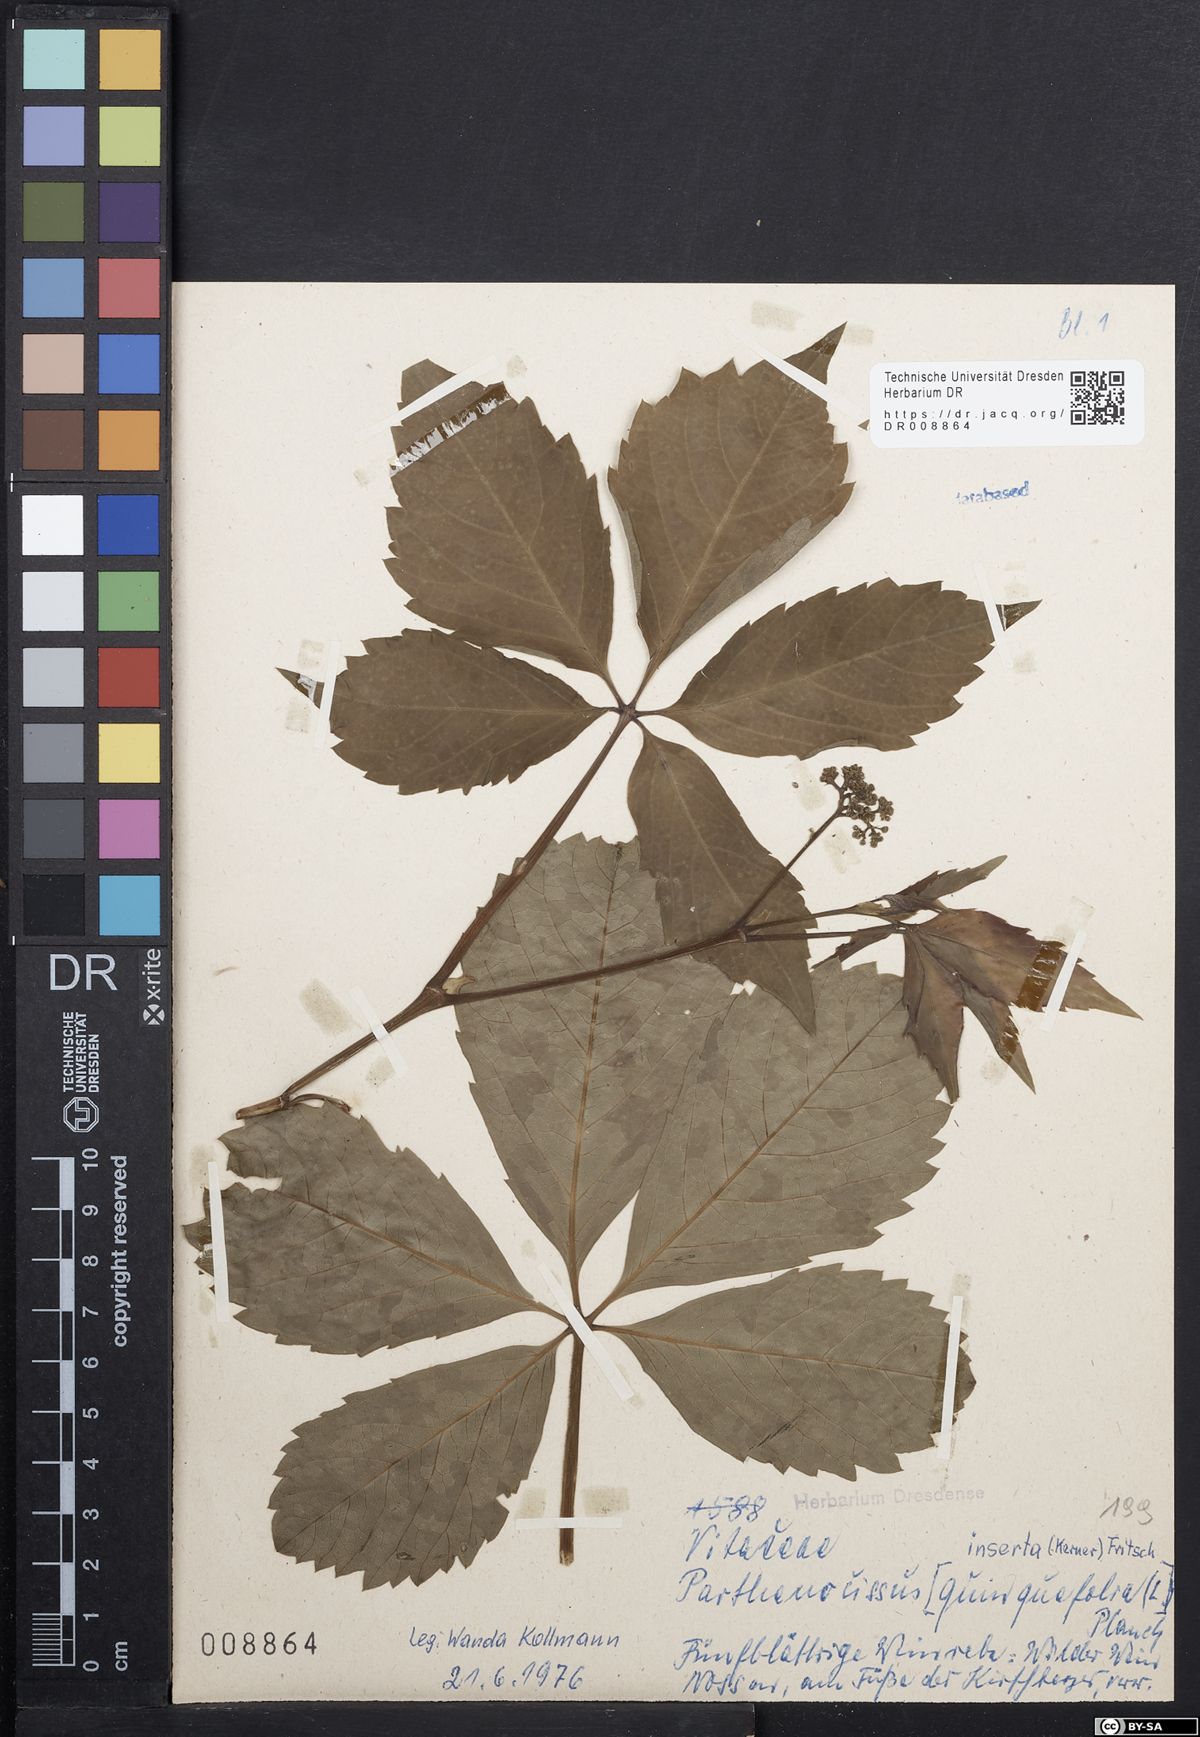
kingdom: Plantae
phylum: Tracheophyta
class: Magnoliopsida
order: Vitales
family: Vitaceae
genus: Parthenocissus
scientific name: Parthenocissus inserta
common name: False virginia-creeper
